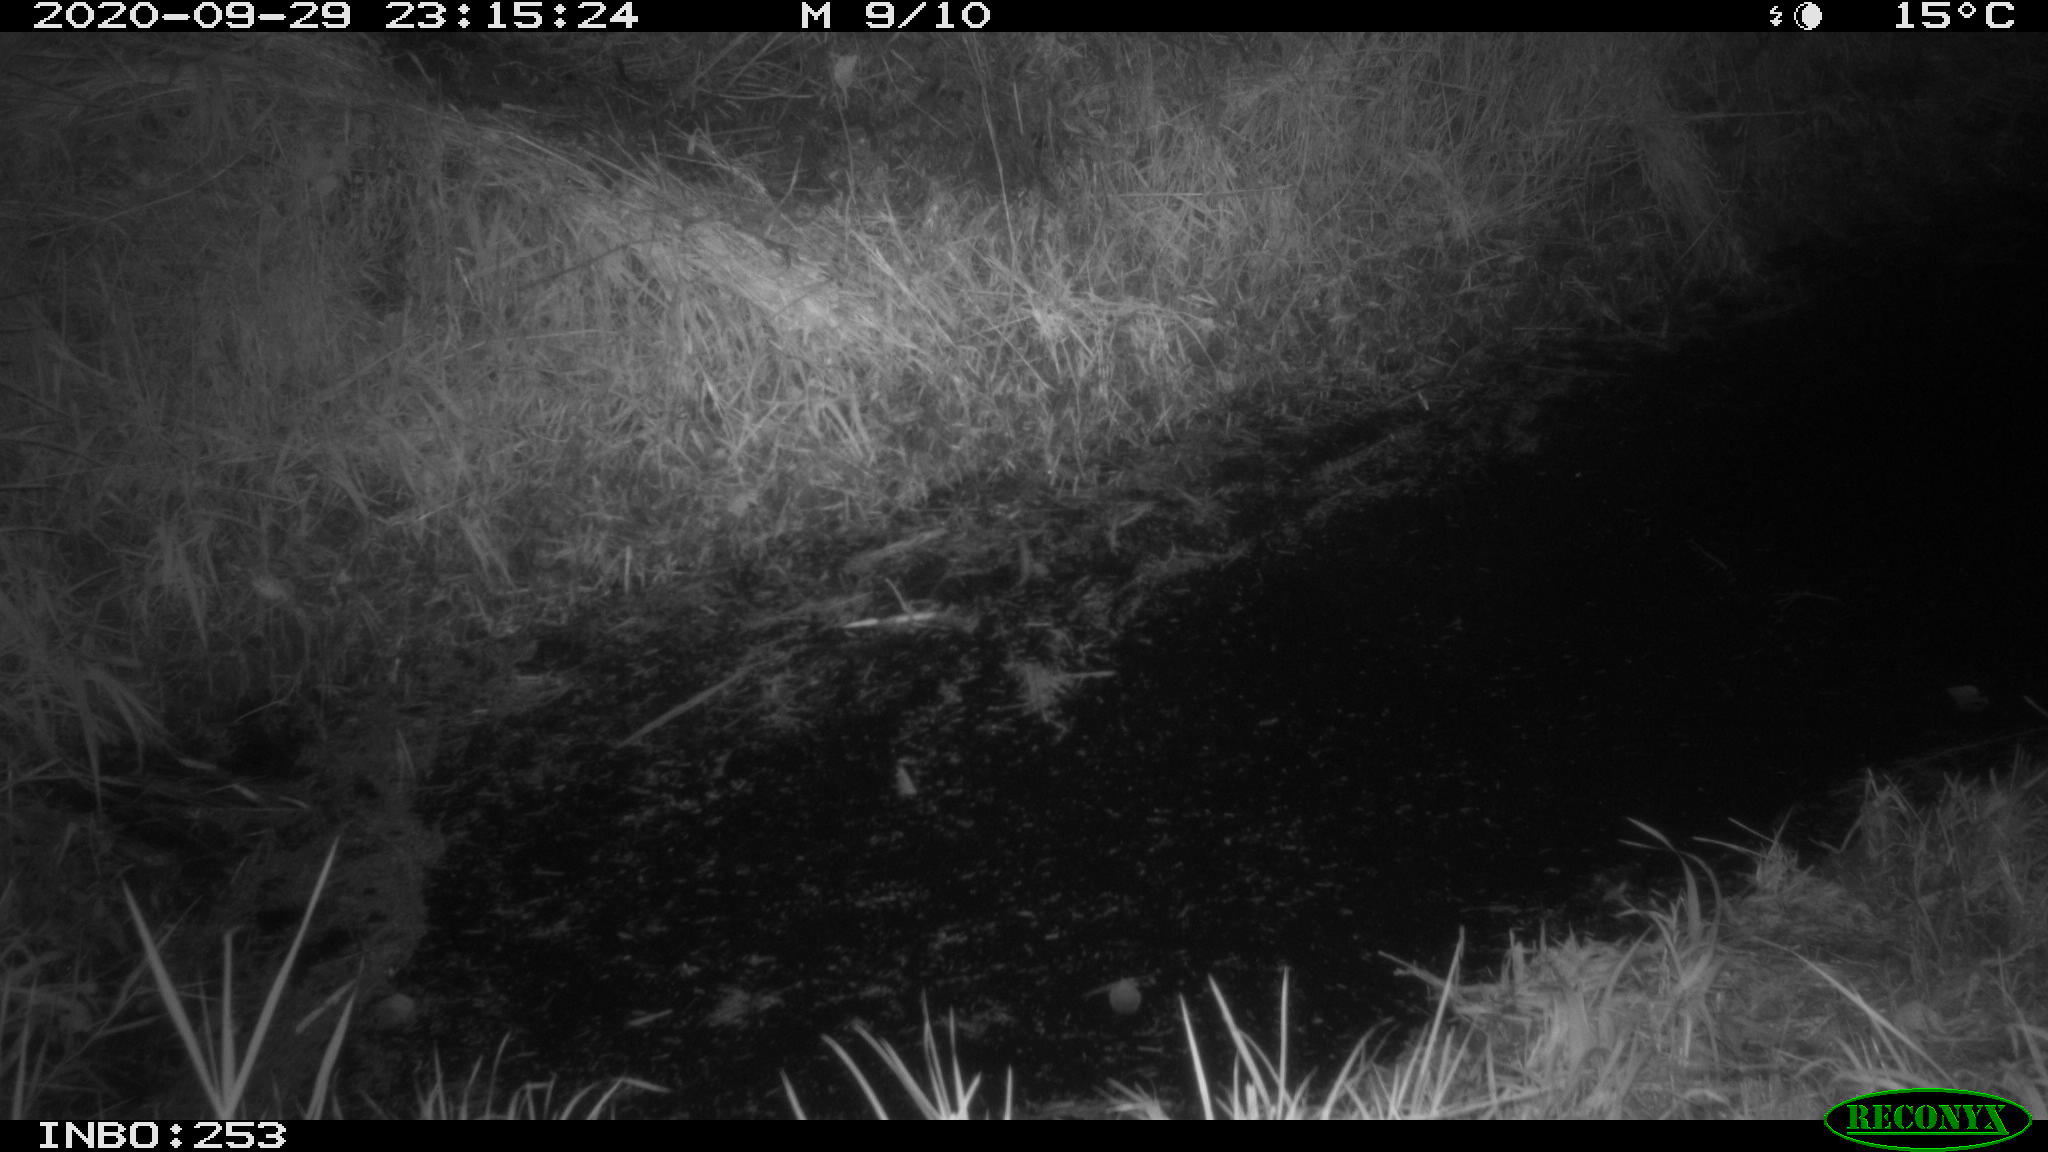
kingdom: Animalia
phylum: Chordata
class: Mammalia
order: Carnivora
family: Canidae
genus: Vulpes
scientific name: Vulpes vulpes
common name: Red fox
